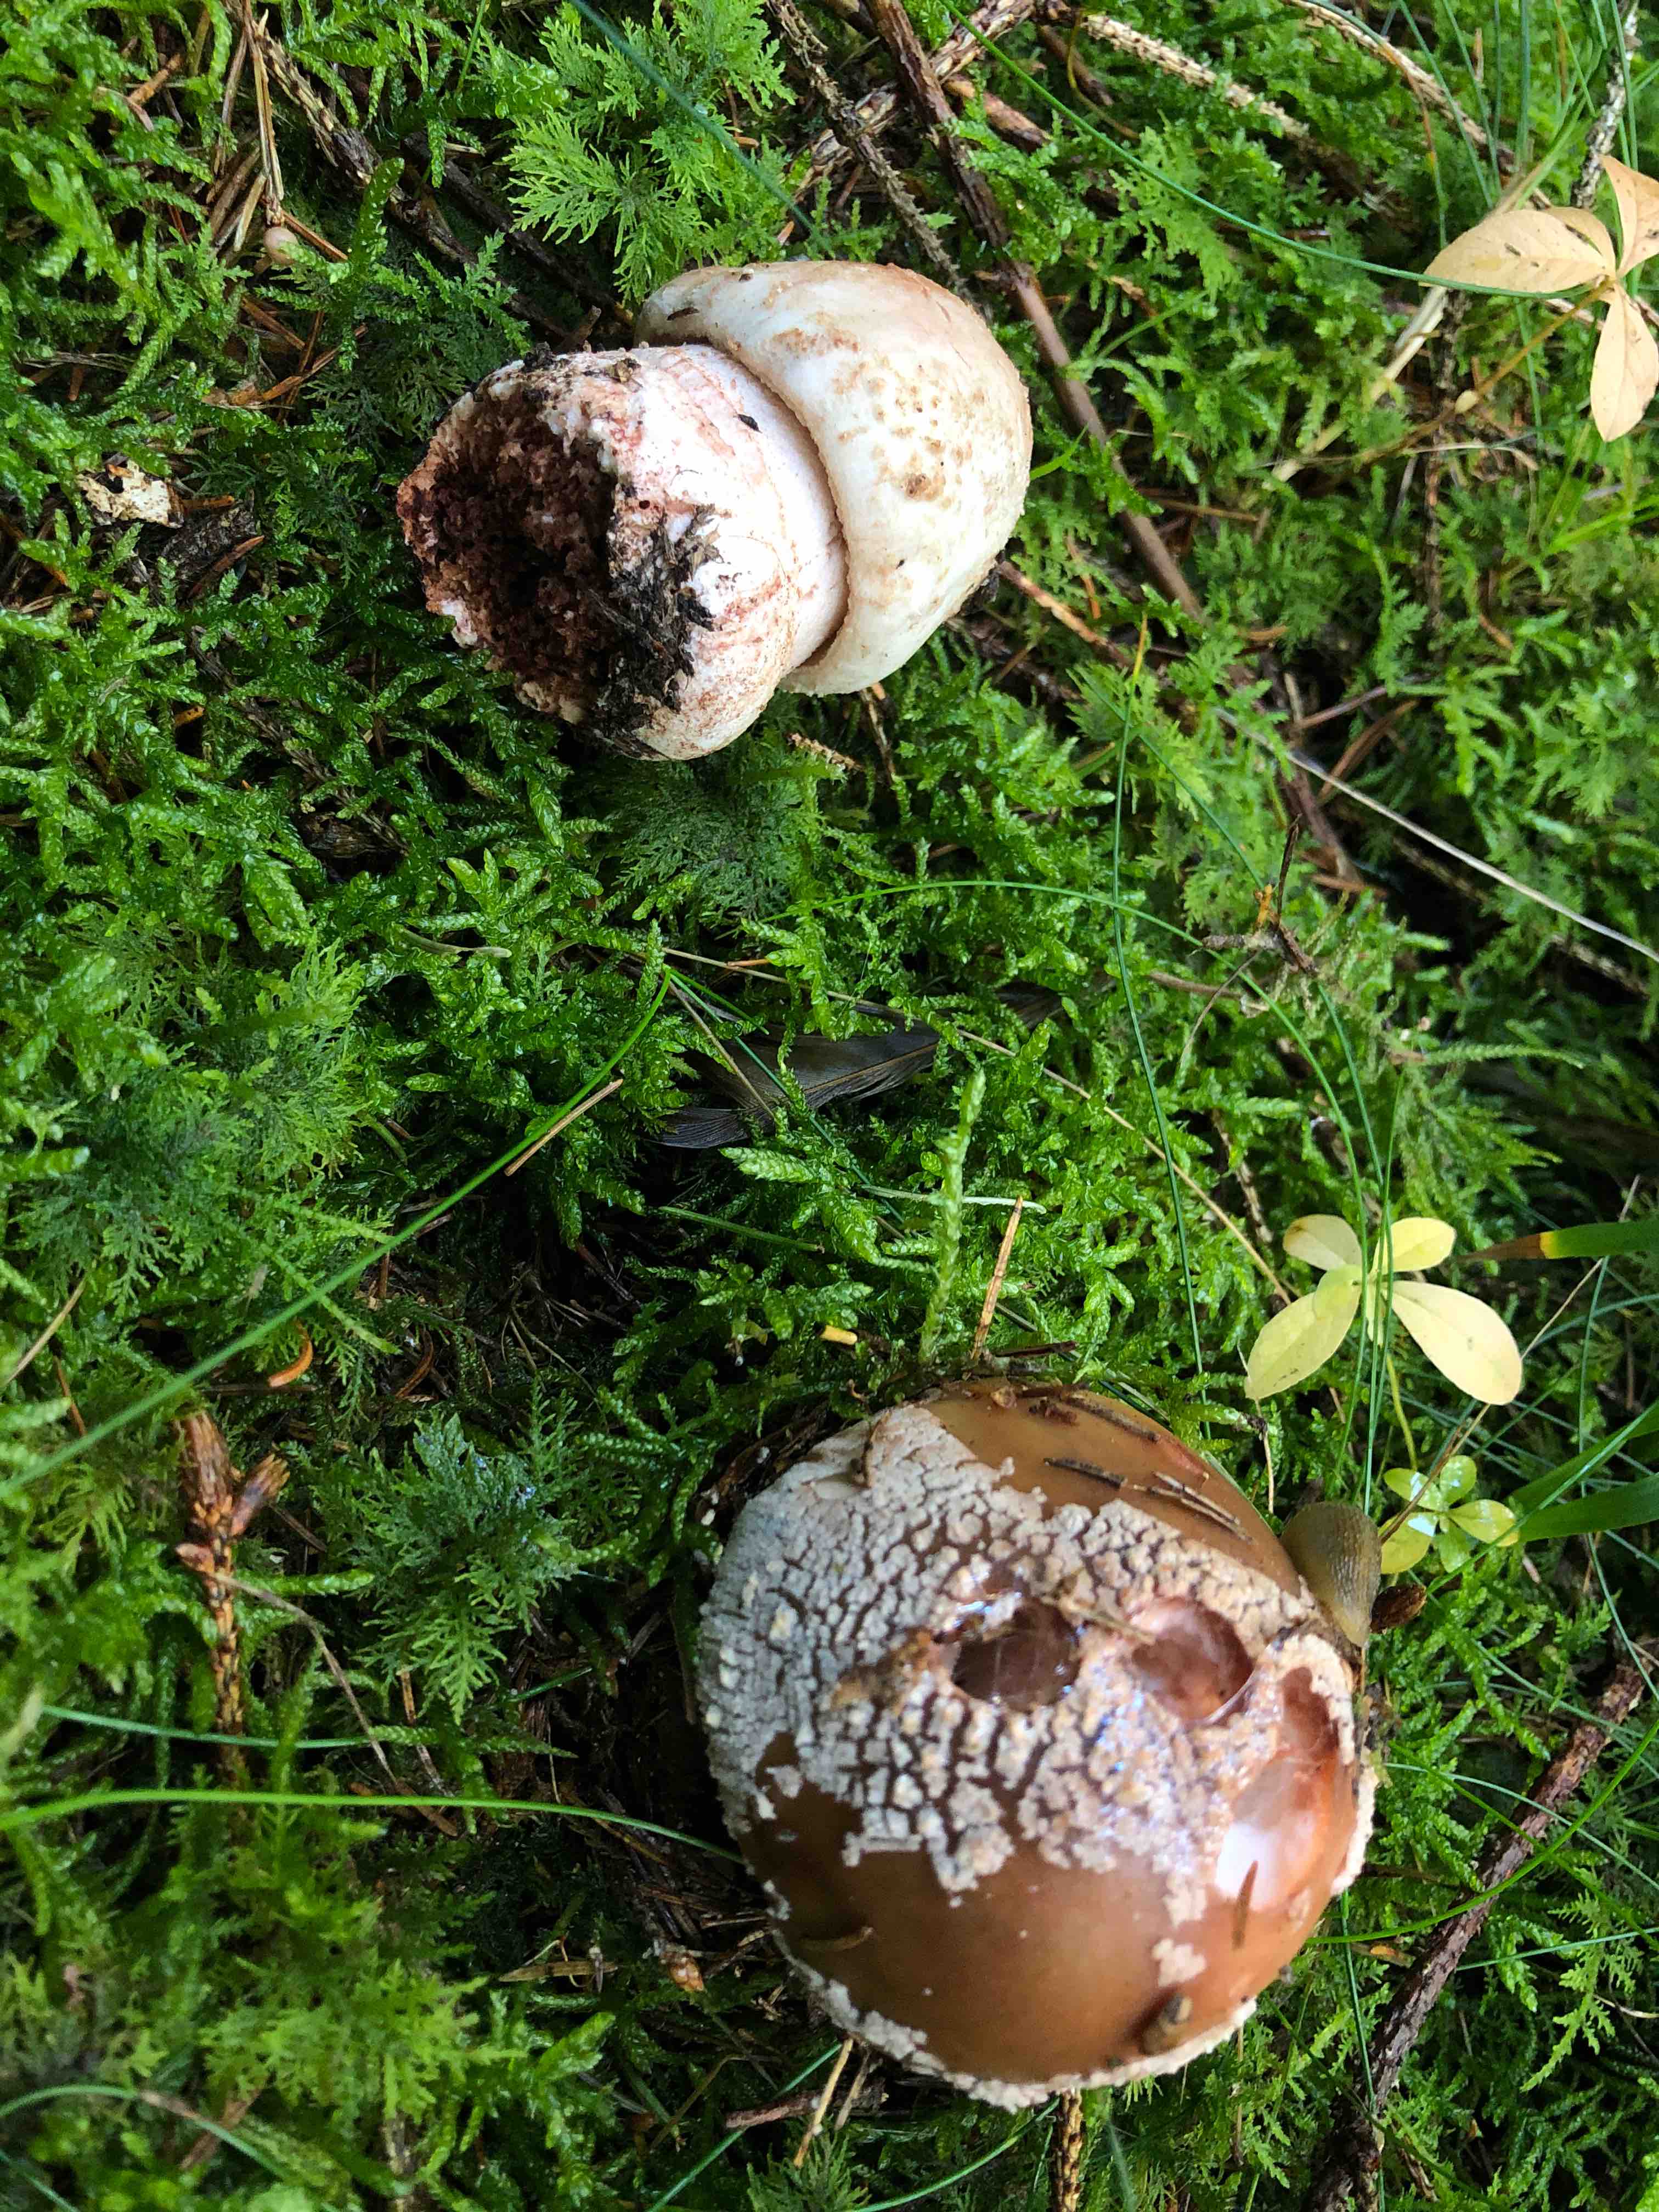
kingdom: Fungi
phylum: Basidiomycota
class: Agaricomycetes
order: Agaricales
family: Amanitaceae
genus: Amanita
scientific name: Amanita rubescens
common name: rødmende fluesvamp
